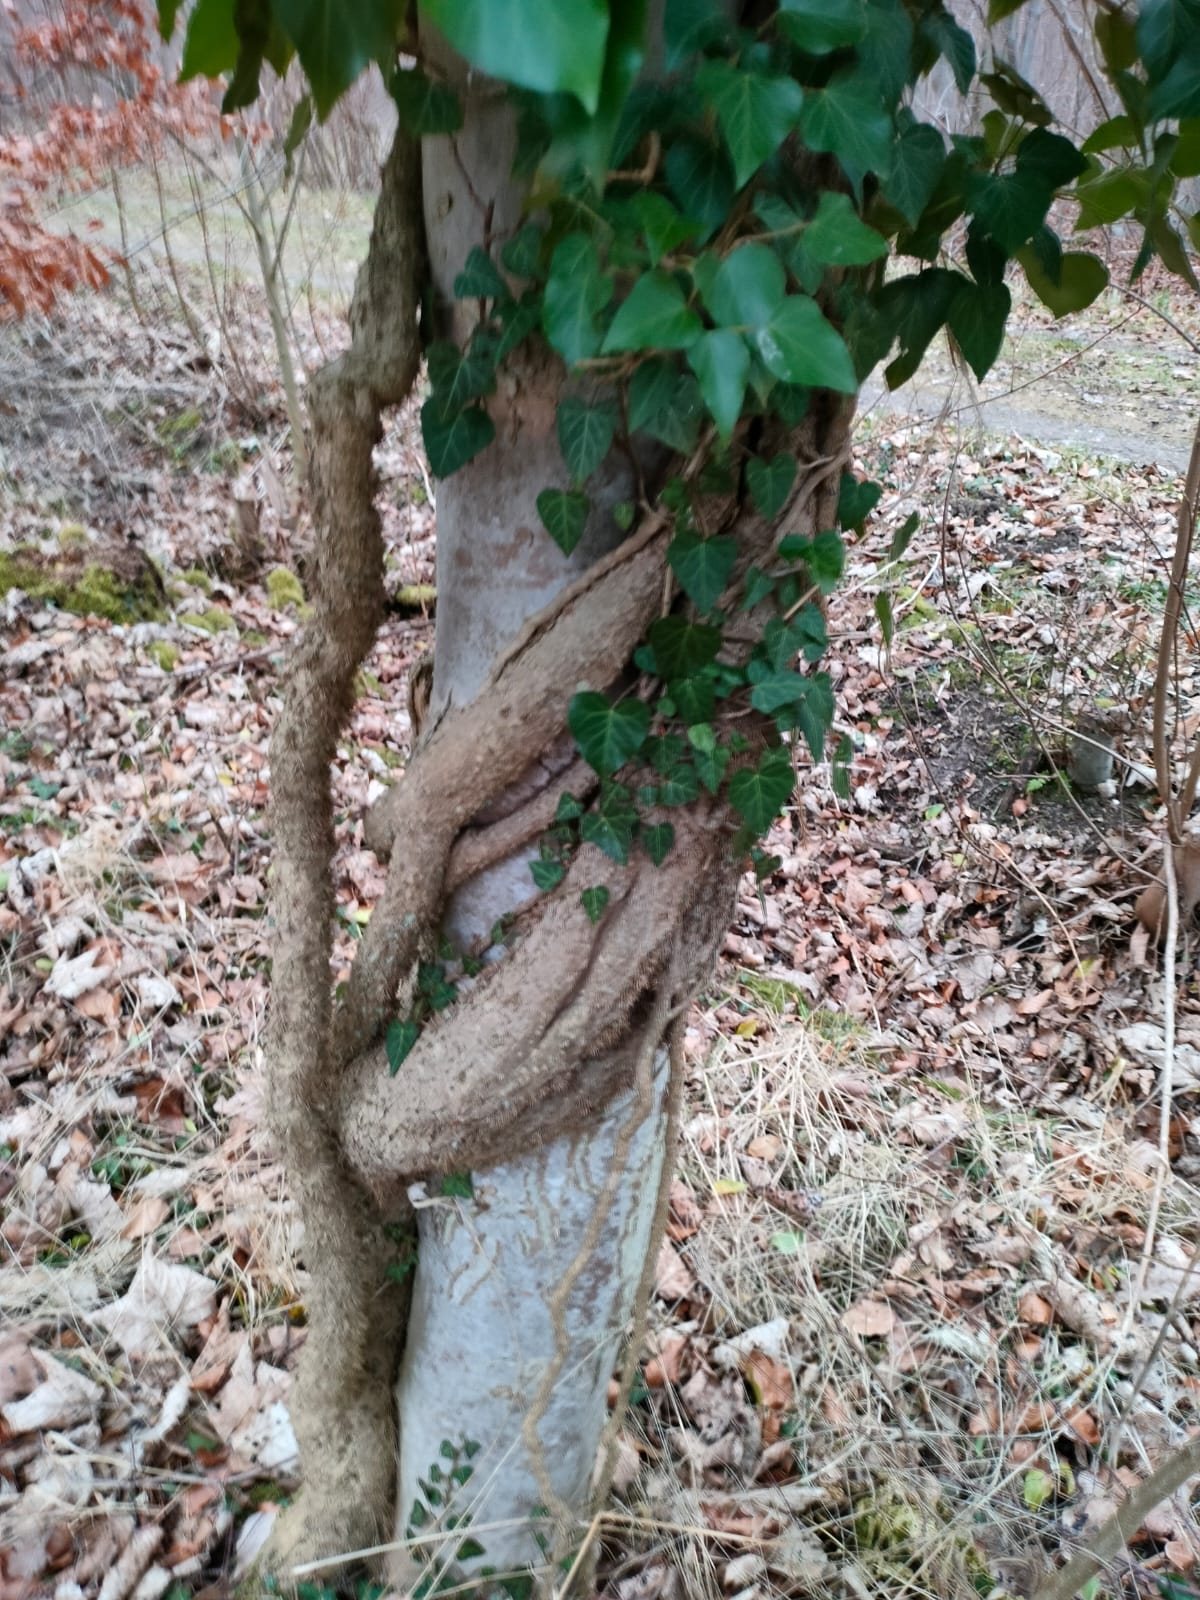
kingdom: Plantae
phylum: Tracheophyta
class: Magnoliopsida
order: Apiales
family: Araliaceae
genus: Hedera
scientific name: Hedera helix
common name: Vedbend
